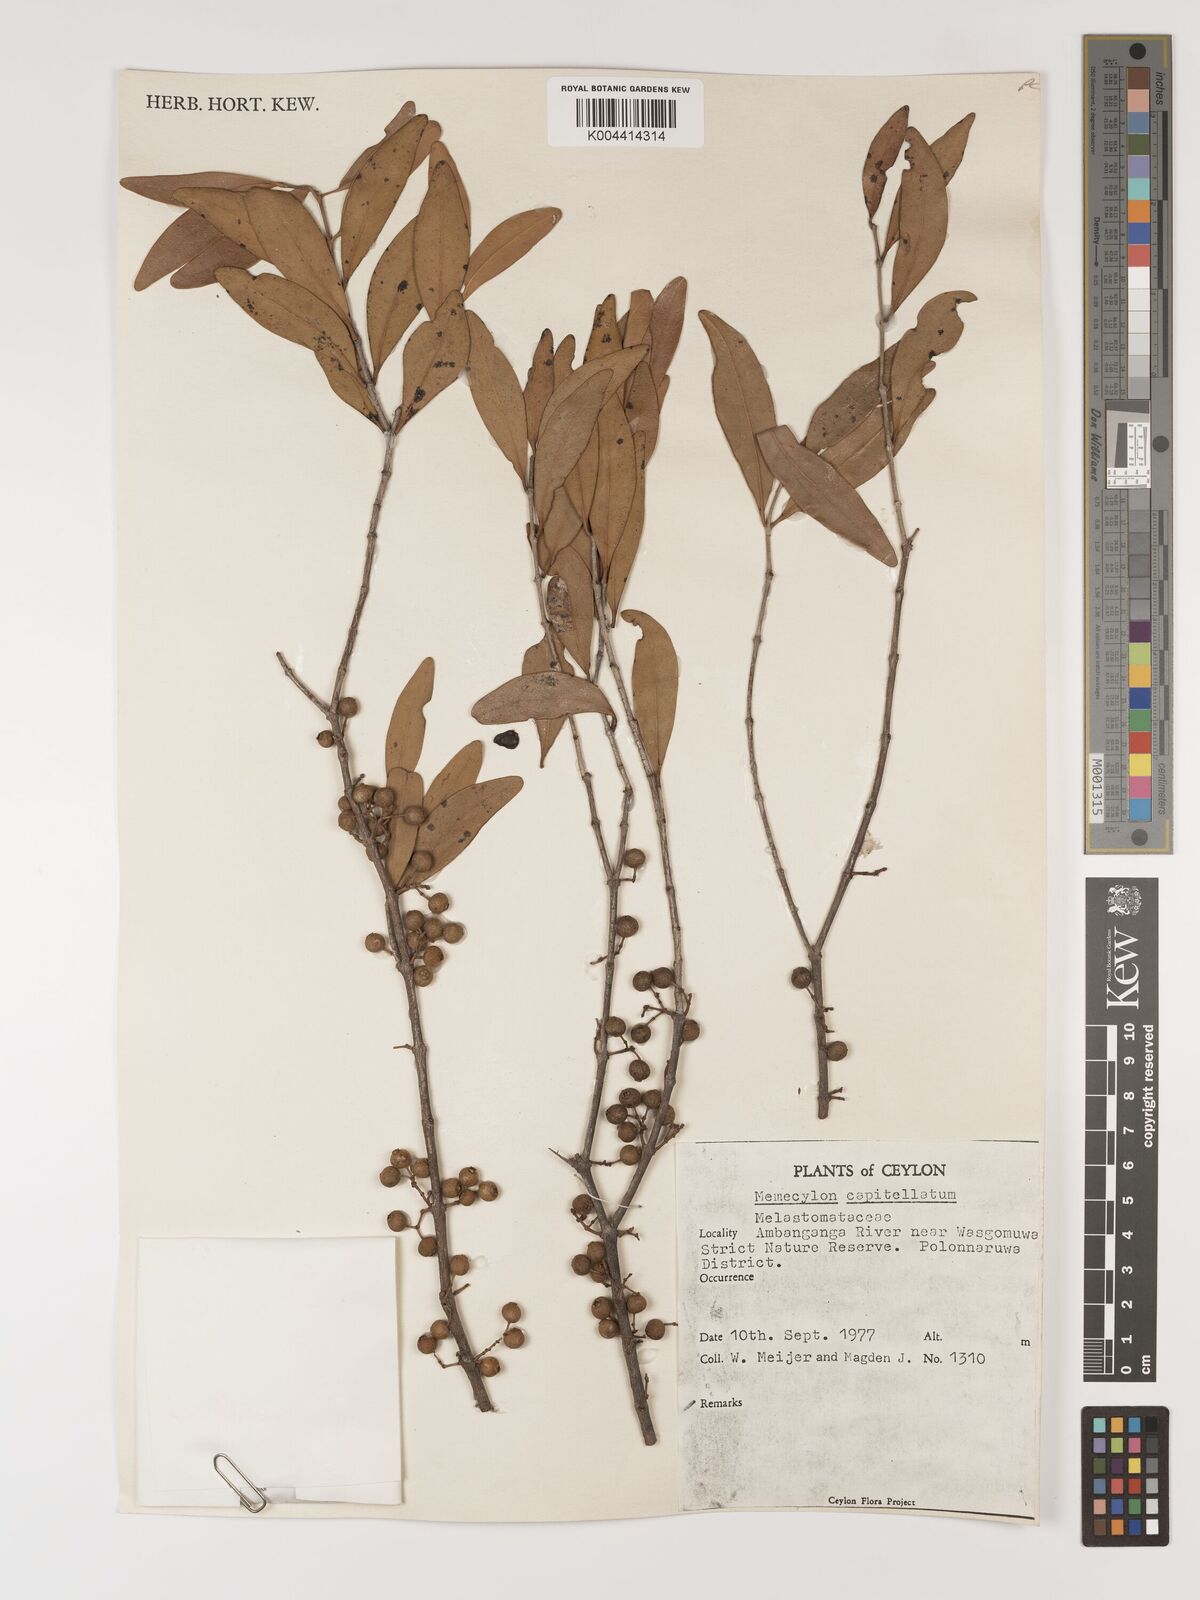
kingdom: Plantae
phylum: Tracheophyta
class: Magnoliopsida
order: Myrtales
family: Melastomataceae
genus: Memecylon
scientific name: Memecylon capitellatum
